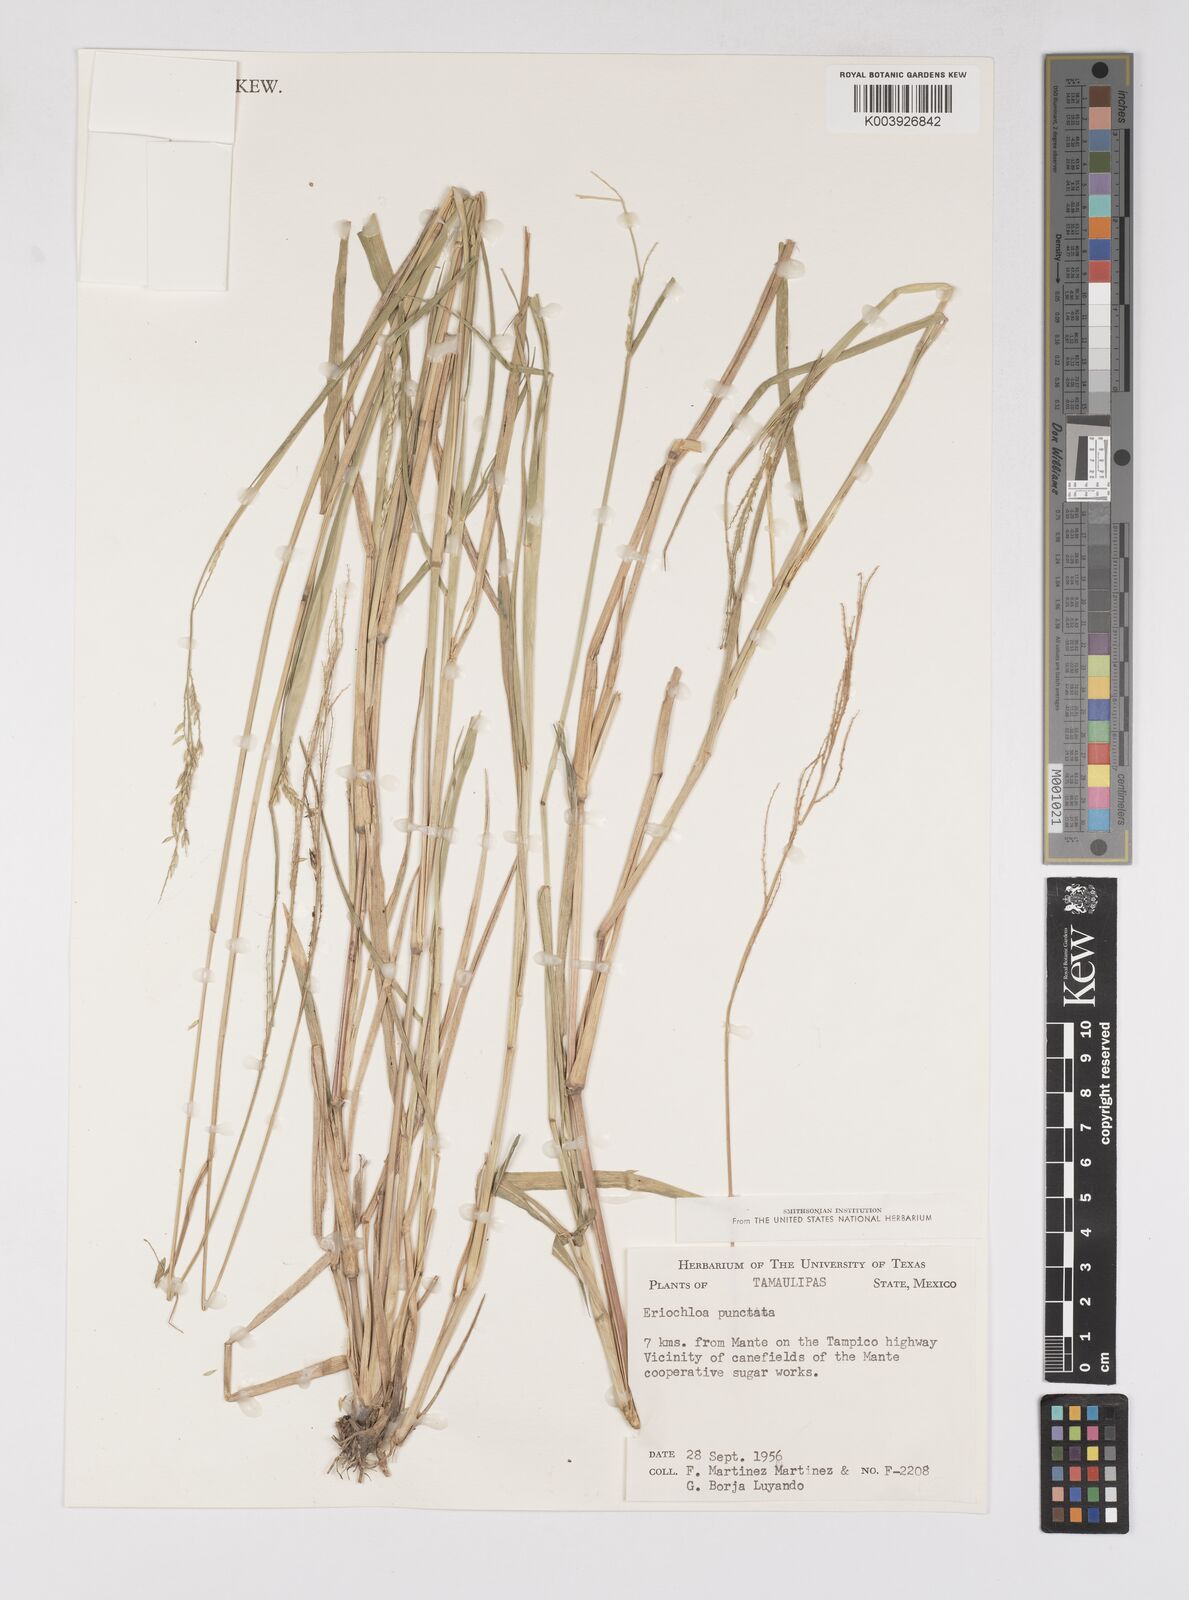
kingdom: Plantae
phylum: Tracheophyta
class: Liliopsida
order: Poales
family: Poaceae
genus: Eriochloa
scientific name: Eriochloa punctata
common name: Louisiana cupgrass
